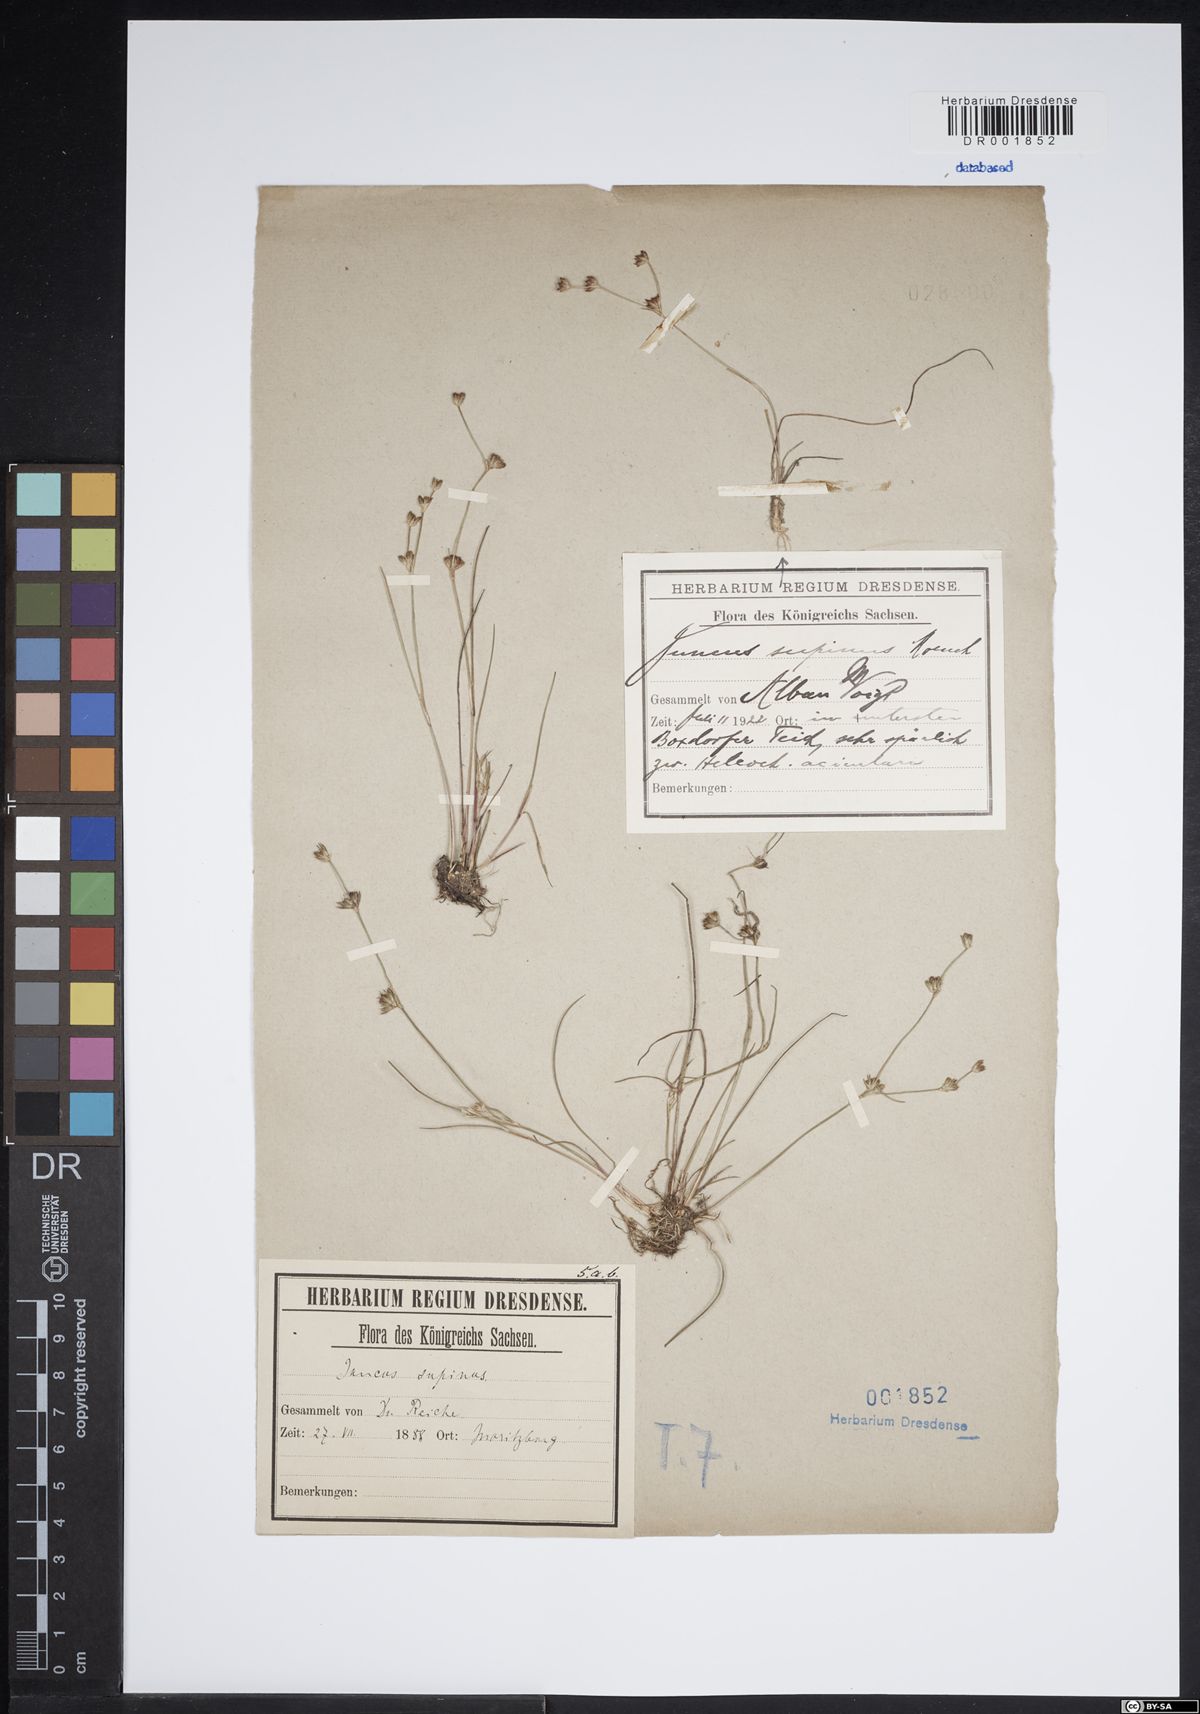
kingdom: Plantae
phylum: Tracheophyta
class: Liliopsida
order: Poales
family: Juncaceae
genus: Juncus
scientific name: Juncus bulbosus
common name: Bulbous rush
